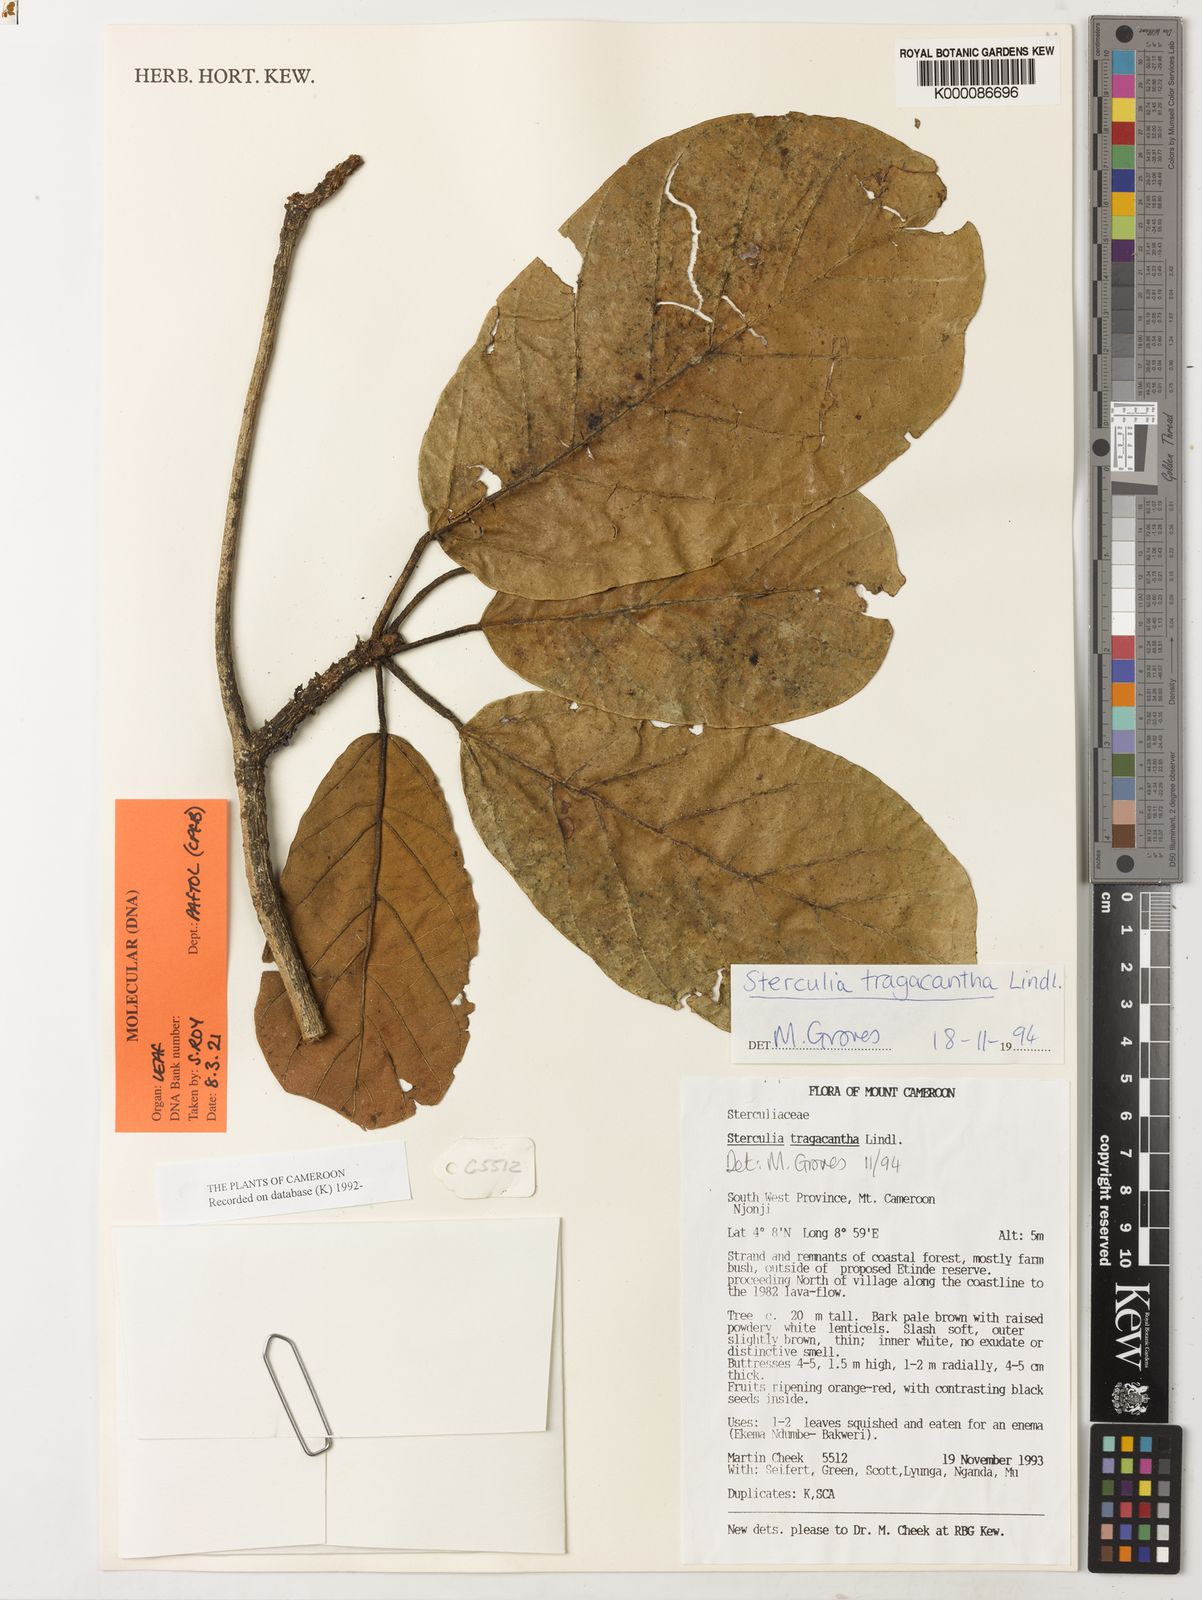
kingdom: Plantae
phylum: Tracheophyta
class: Magnoliopsida
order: Malvales
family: Malvaceae
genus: Sterculia
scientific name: Sterculia tragacantha
